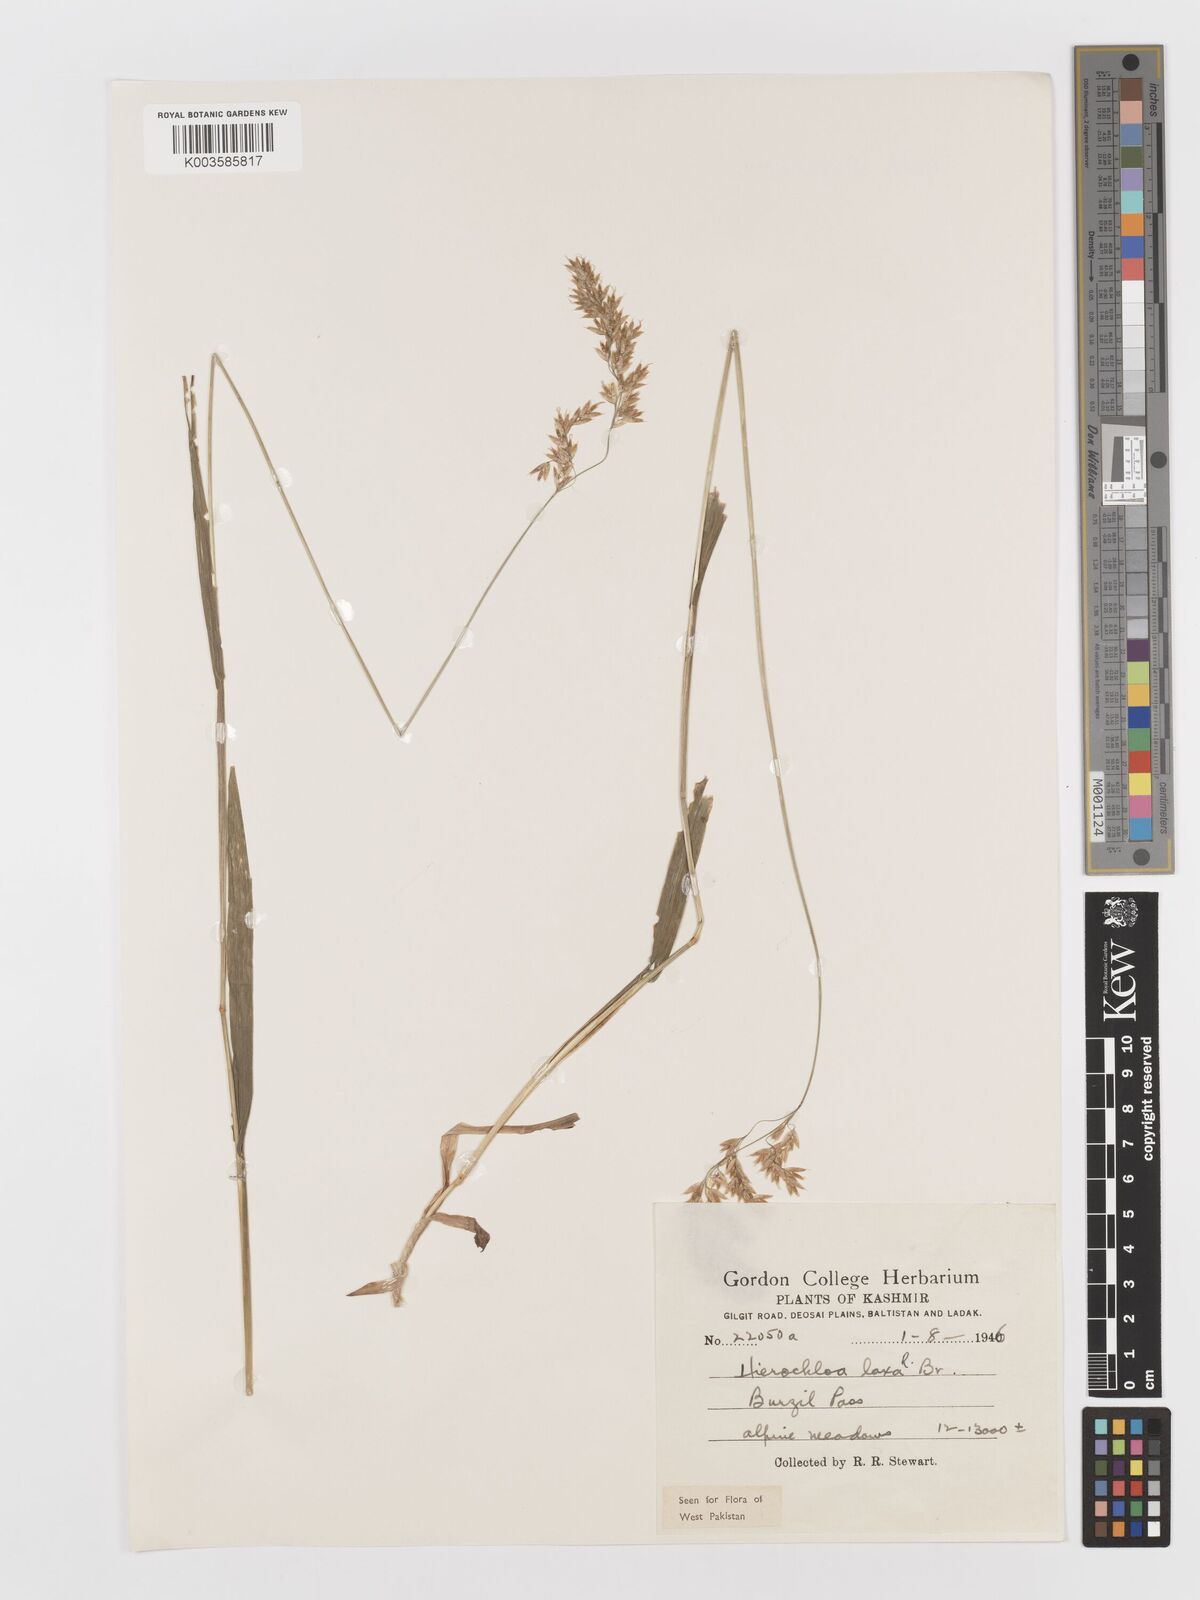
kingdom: Plantae
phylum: Tracheophyta
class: Liliopsida
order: Poales
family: Poaceae
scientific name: Poaceae
